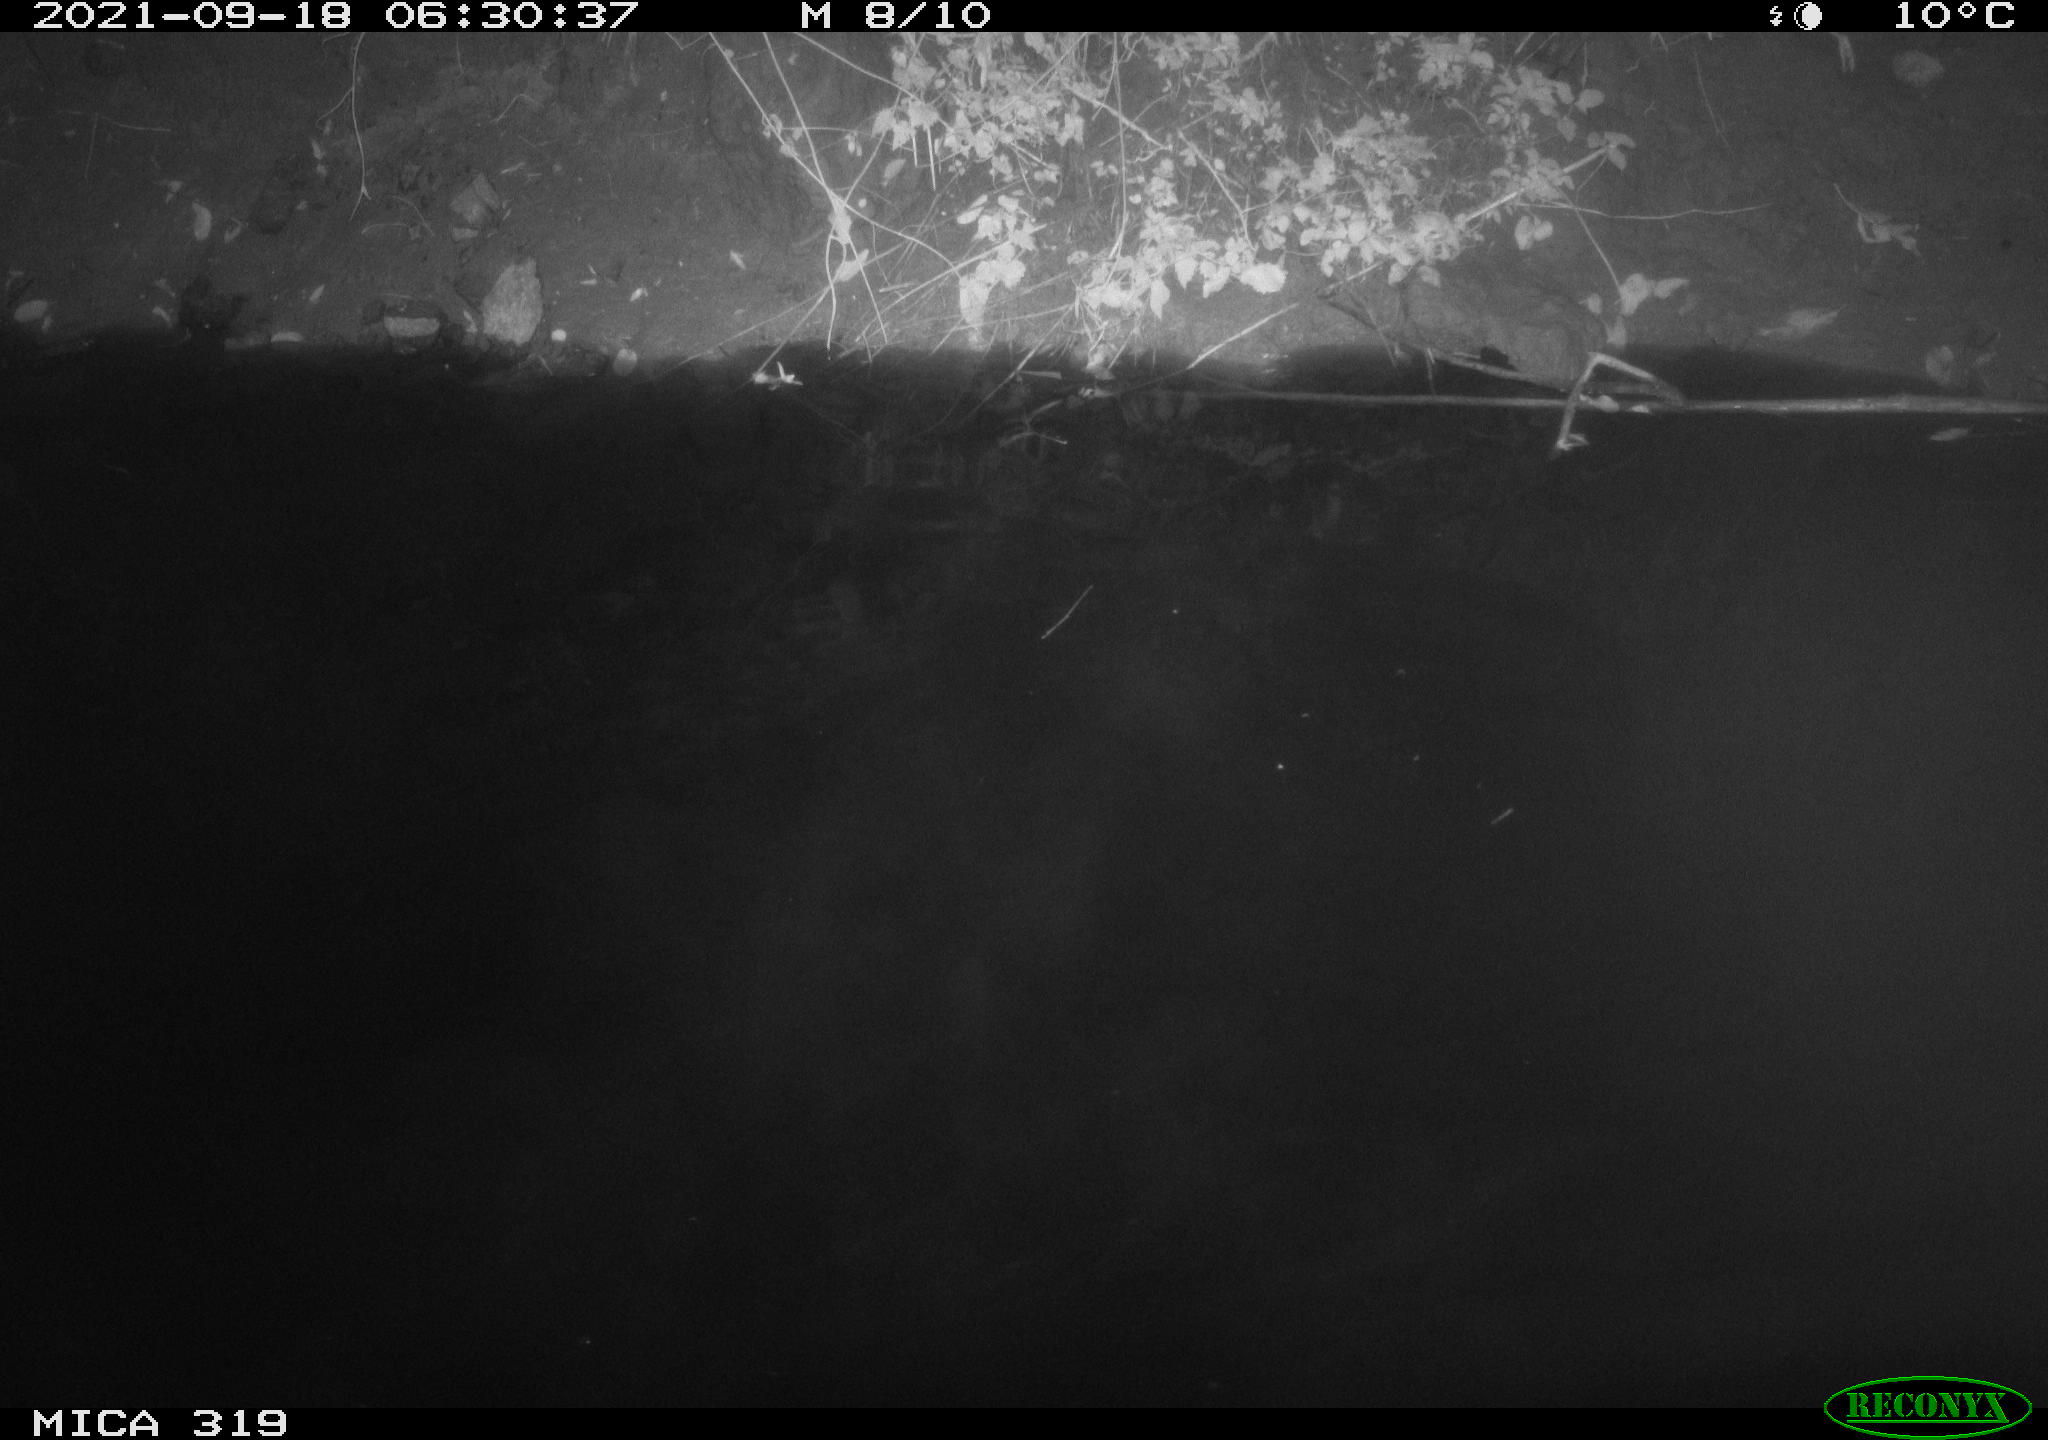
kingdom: Animalia
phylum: Chordata
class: Aves
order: Anseriformes
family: Anatidae
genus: Anas
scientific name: Anas platyrhynchos
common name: Mallard
